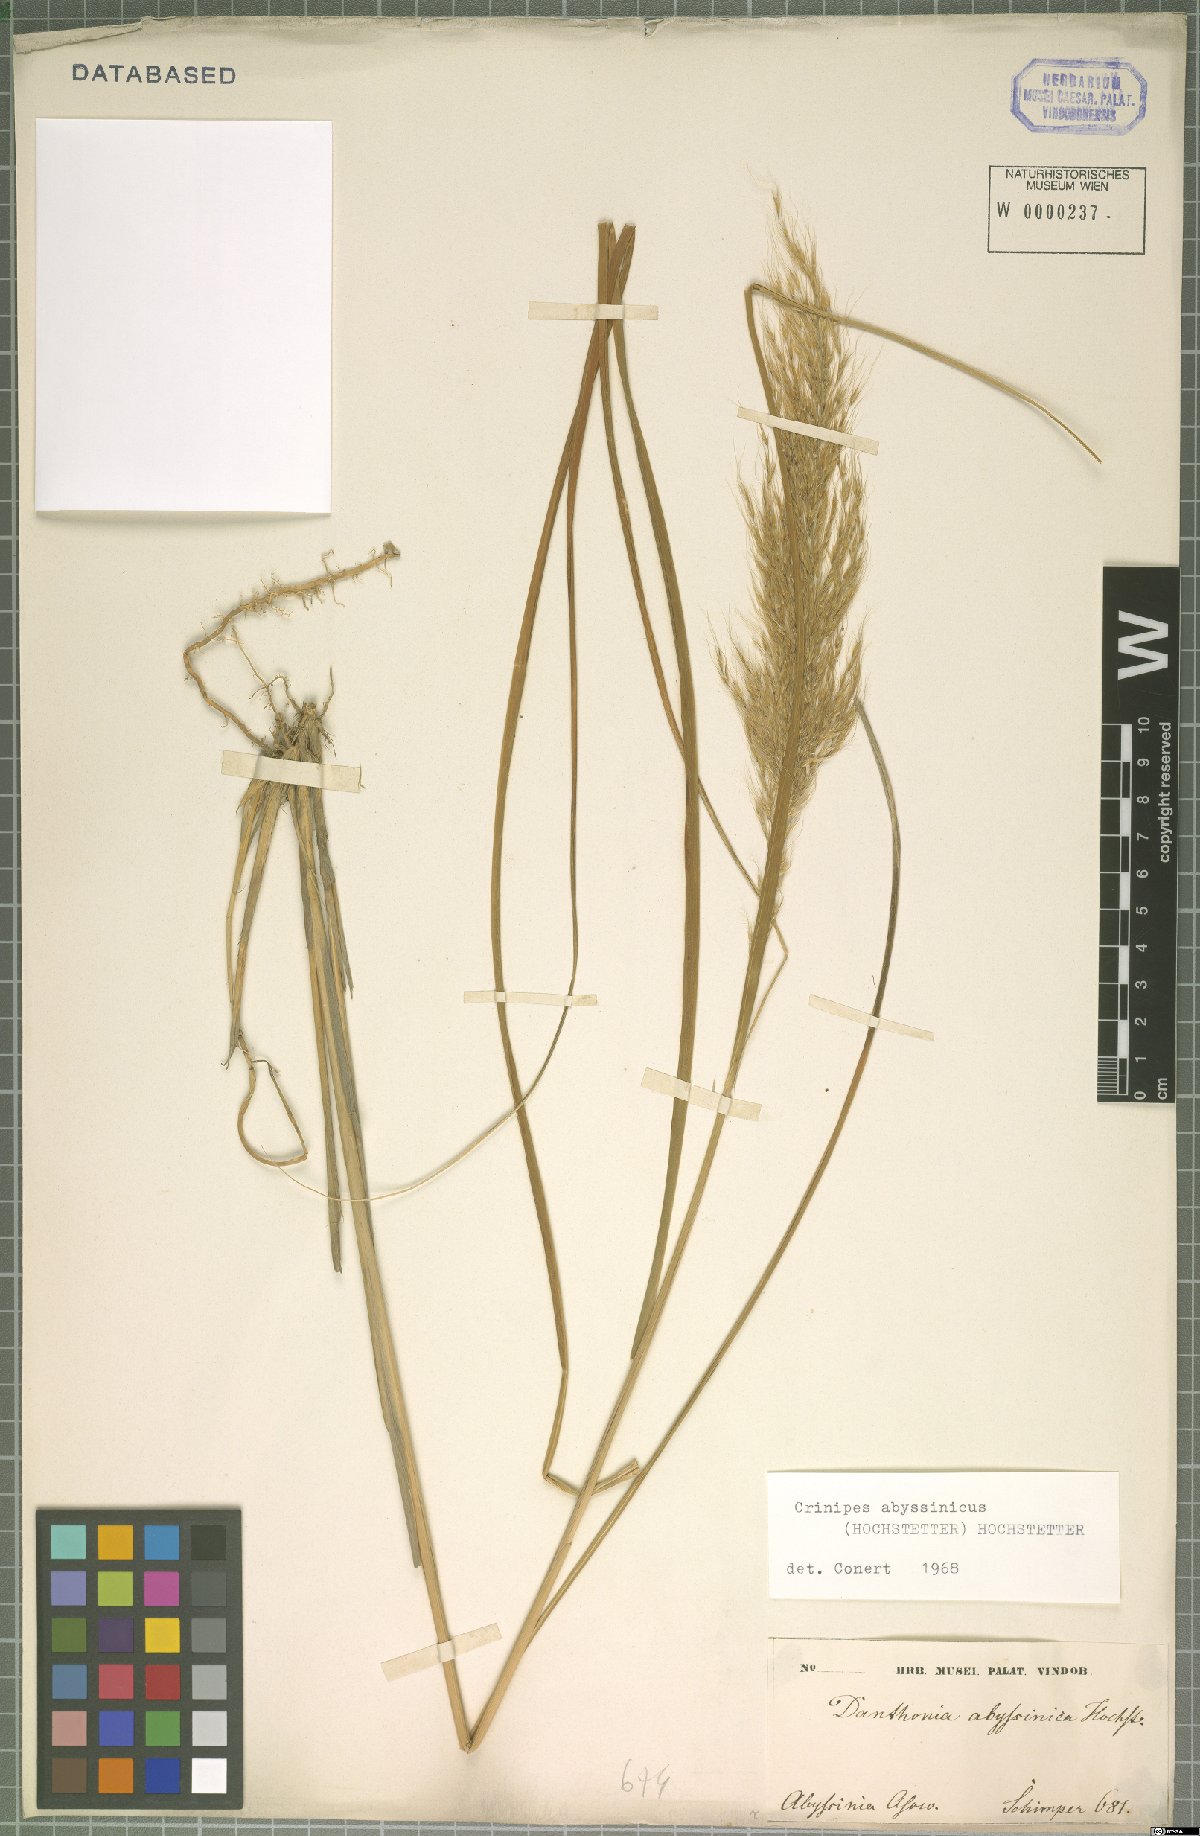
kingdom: Plantae
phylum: Tracheophyta
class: Liliopsida
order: Poales
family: Poaceae
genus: Crinipes
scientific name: Crinipes abyssinicus
